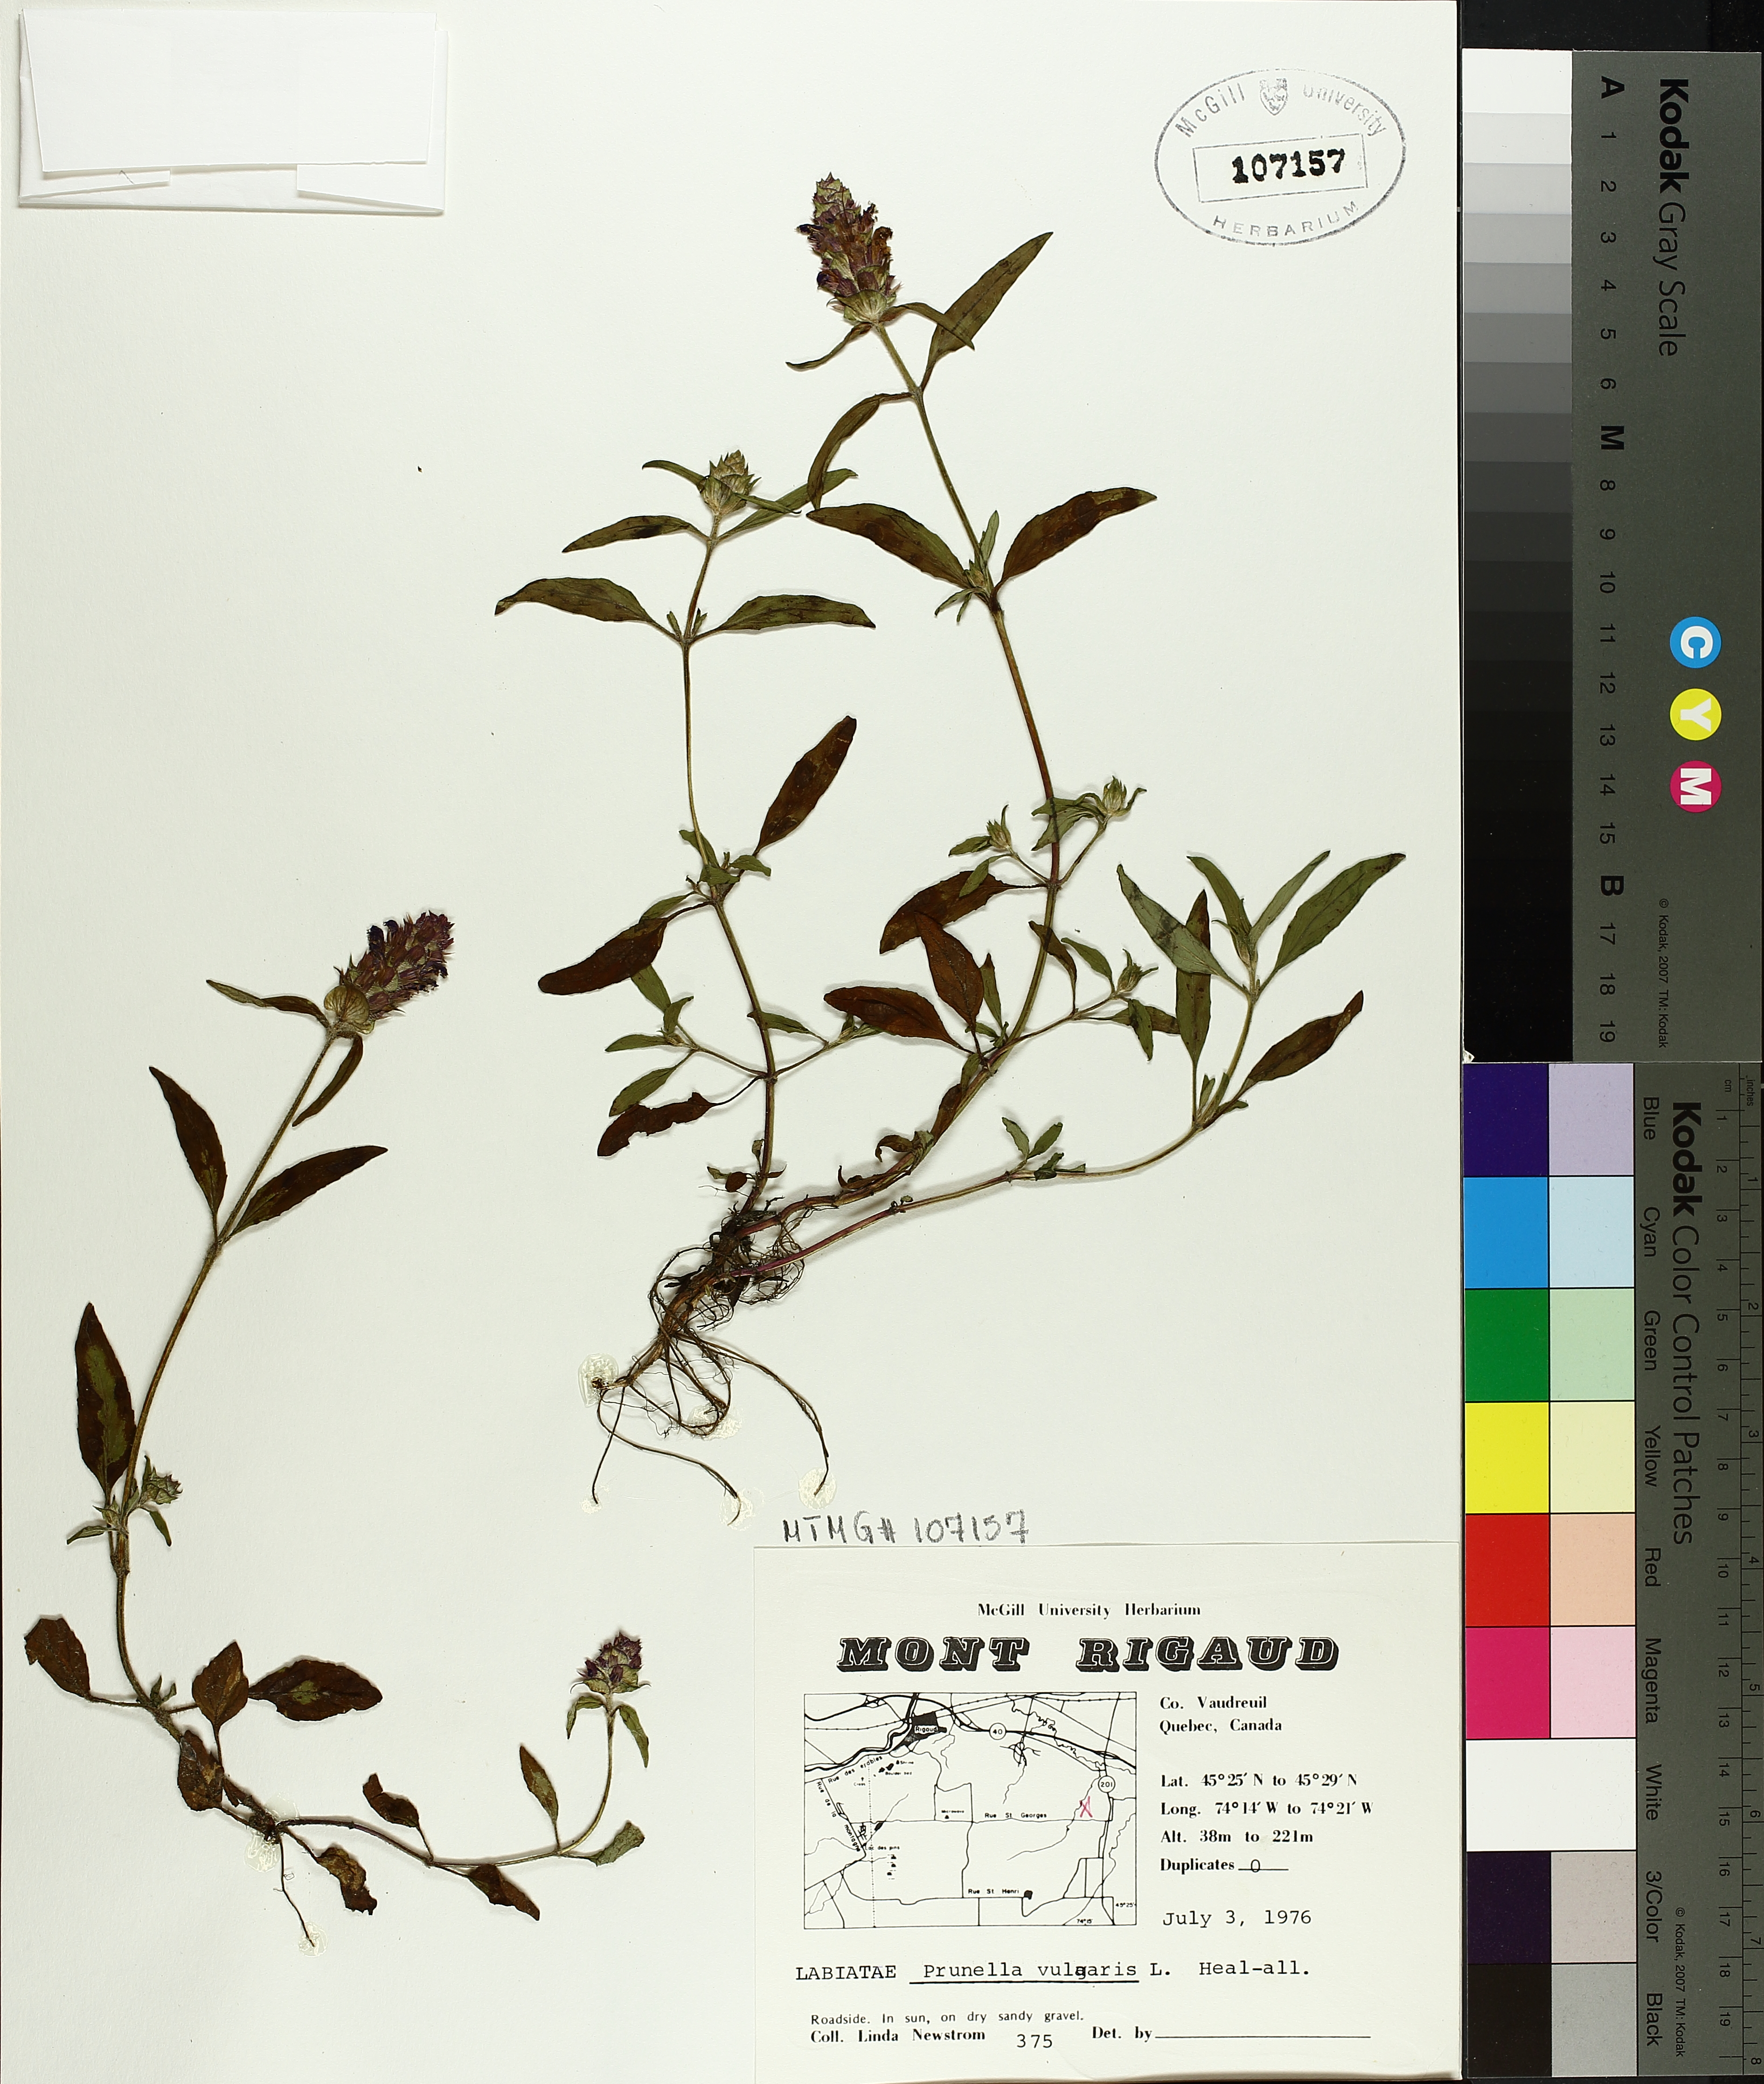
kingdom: Plantae
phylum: Tracheophyta
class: Magnoliopsida
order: Lamiales
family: Lamiaceae
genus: Prunella
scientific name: Prunella vulgaris
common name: Heal-all
